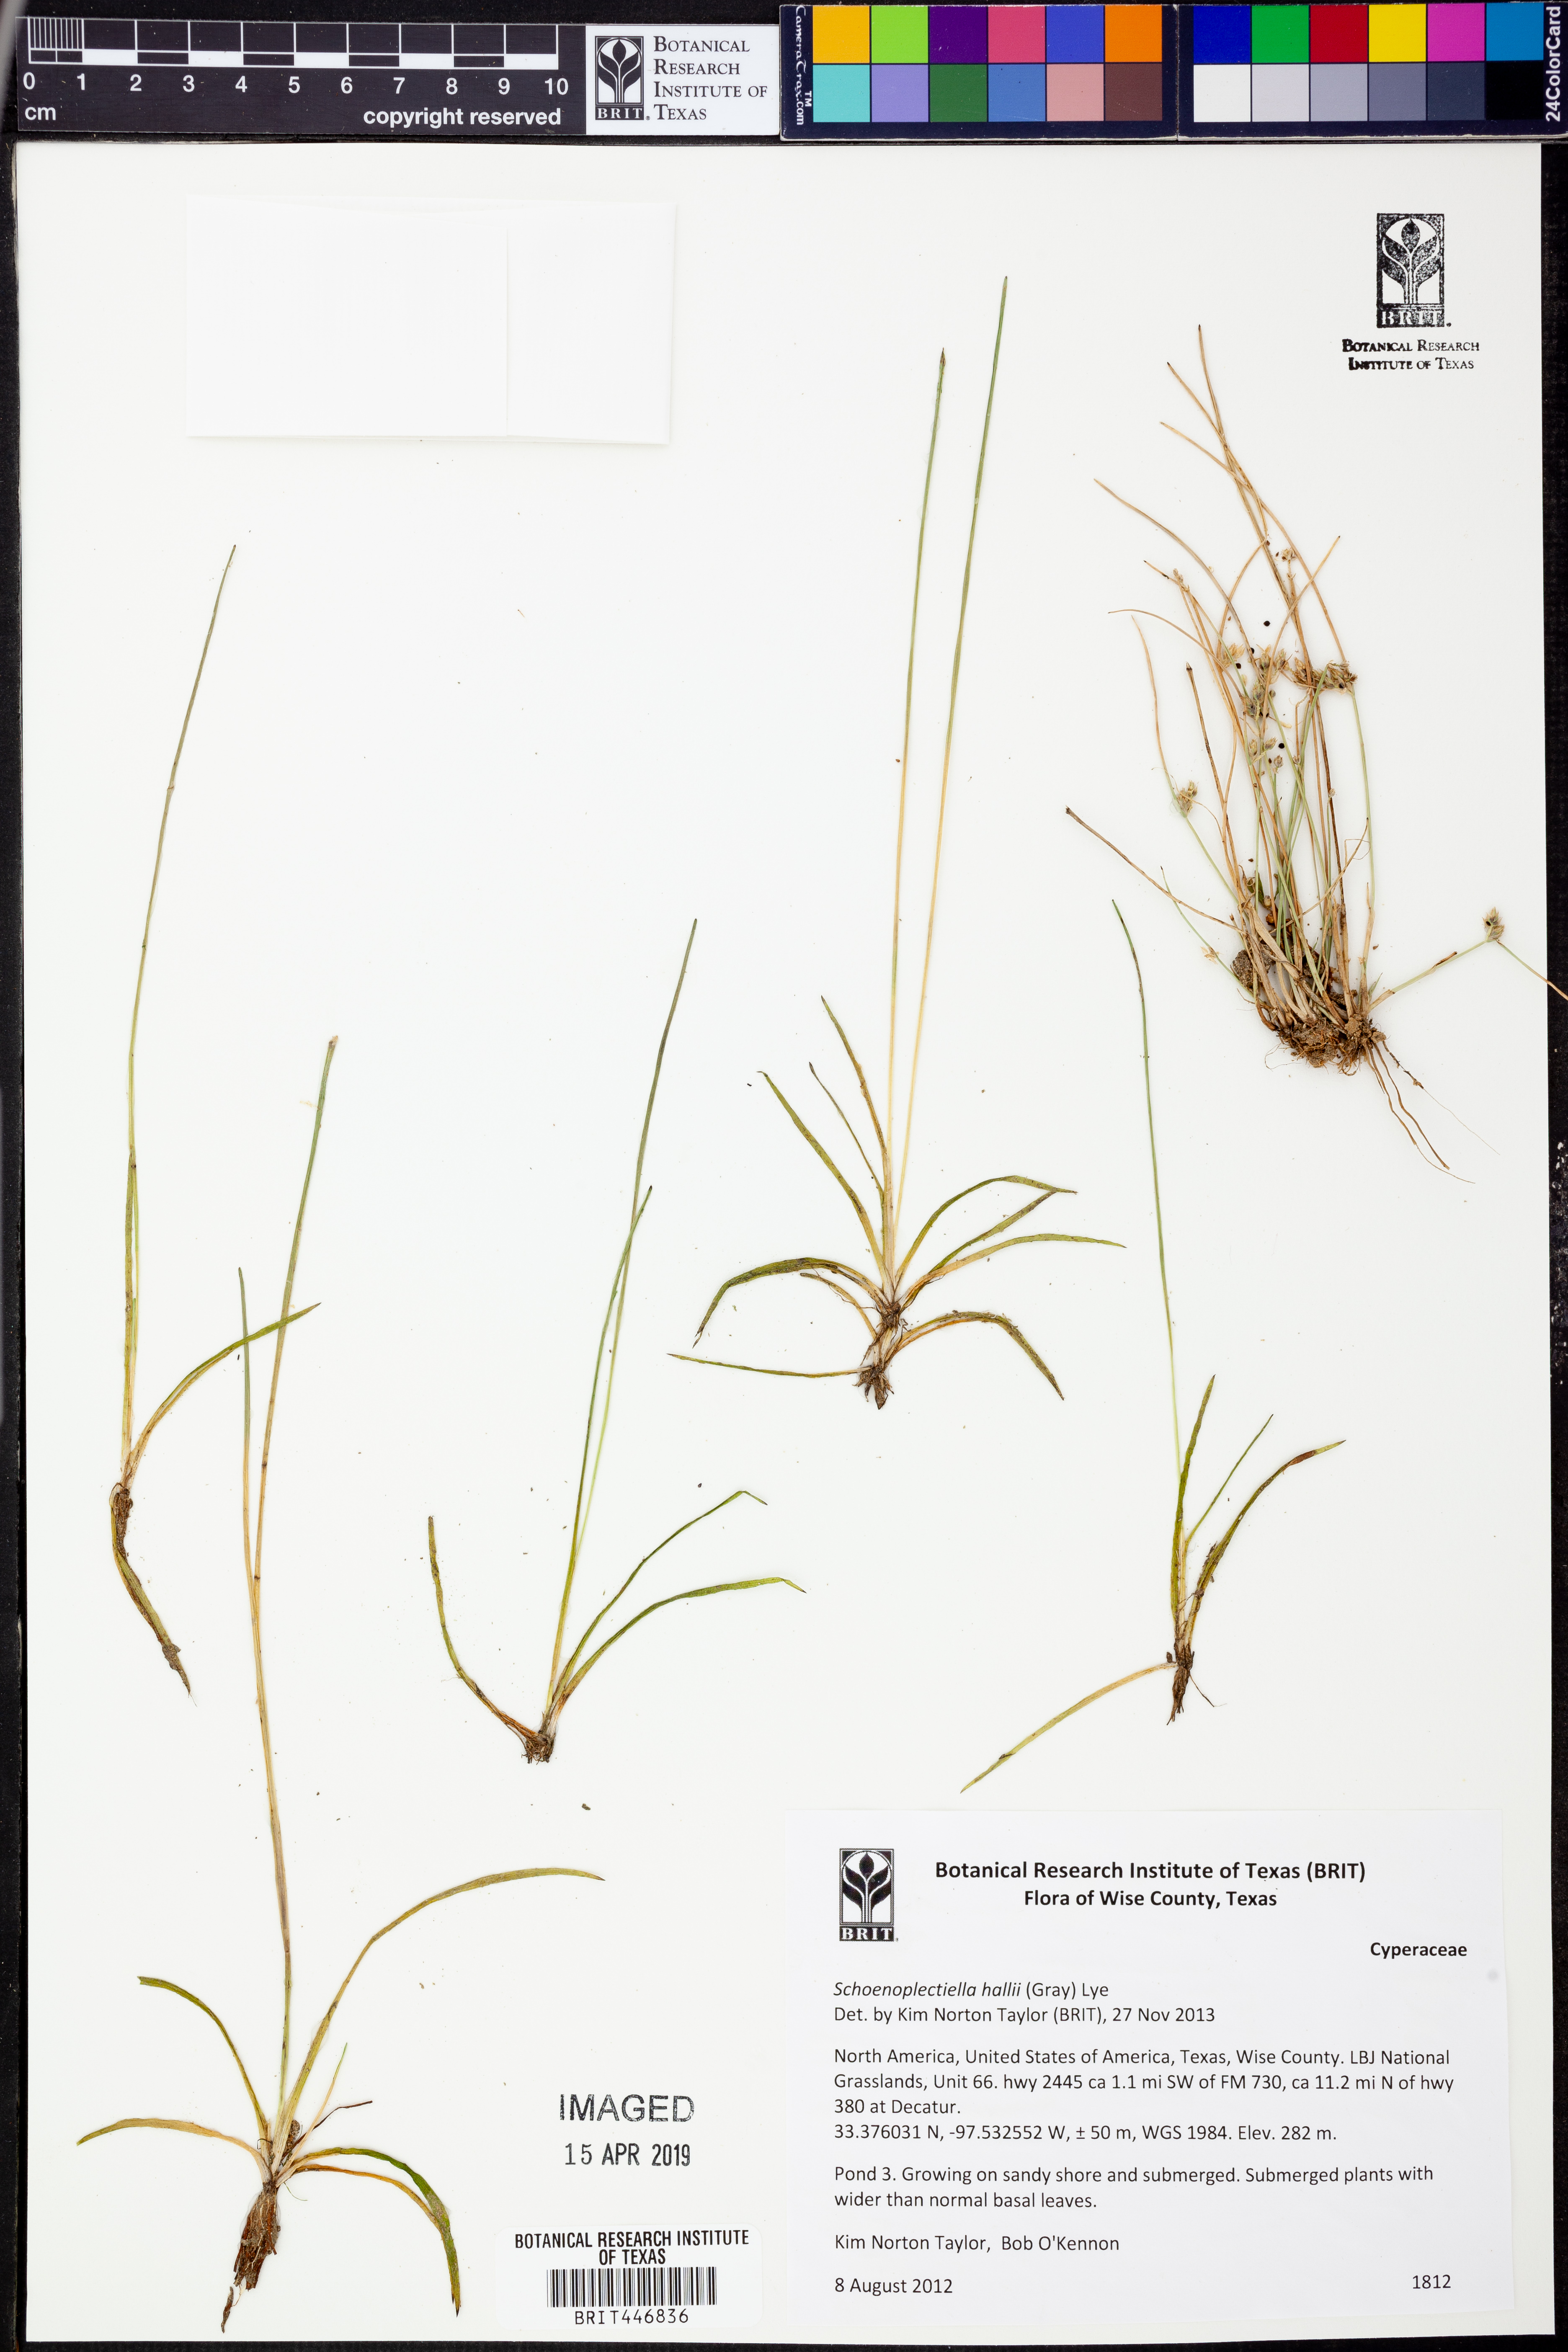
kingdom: Plantae
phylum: Tracheophyta
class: Liliopsida
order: Poales
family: Cyperaceae
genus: Schoenoplectiella
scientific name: Schoenoplectiella hallii
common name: Hall's bullrush
